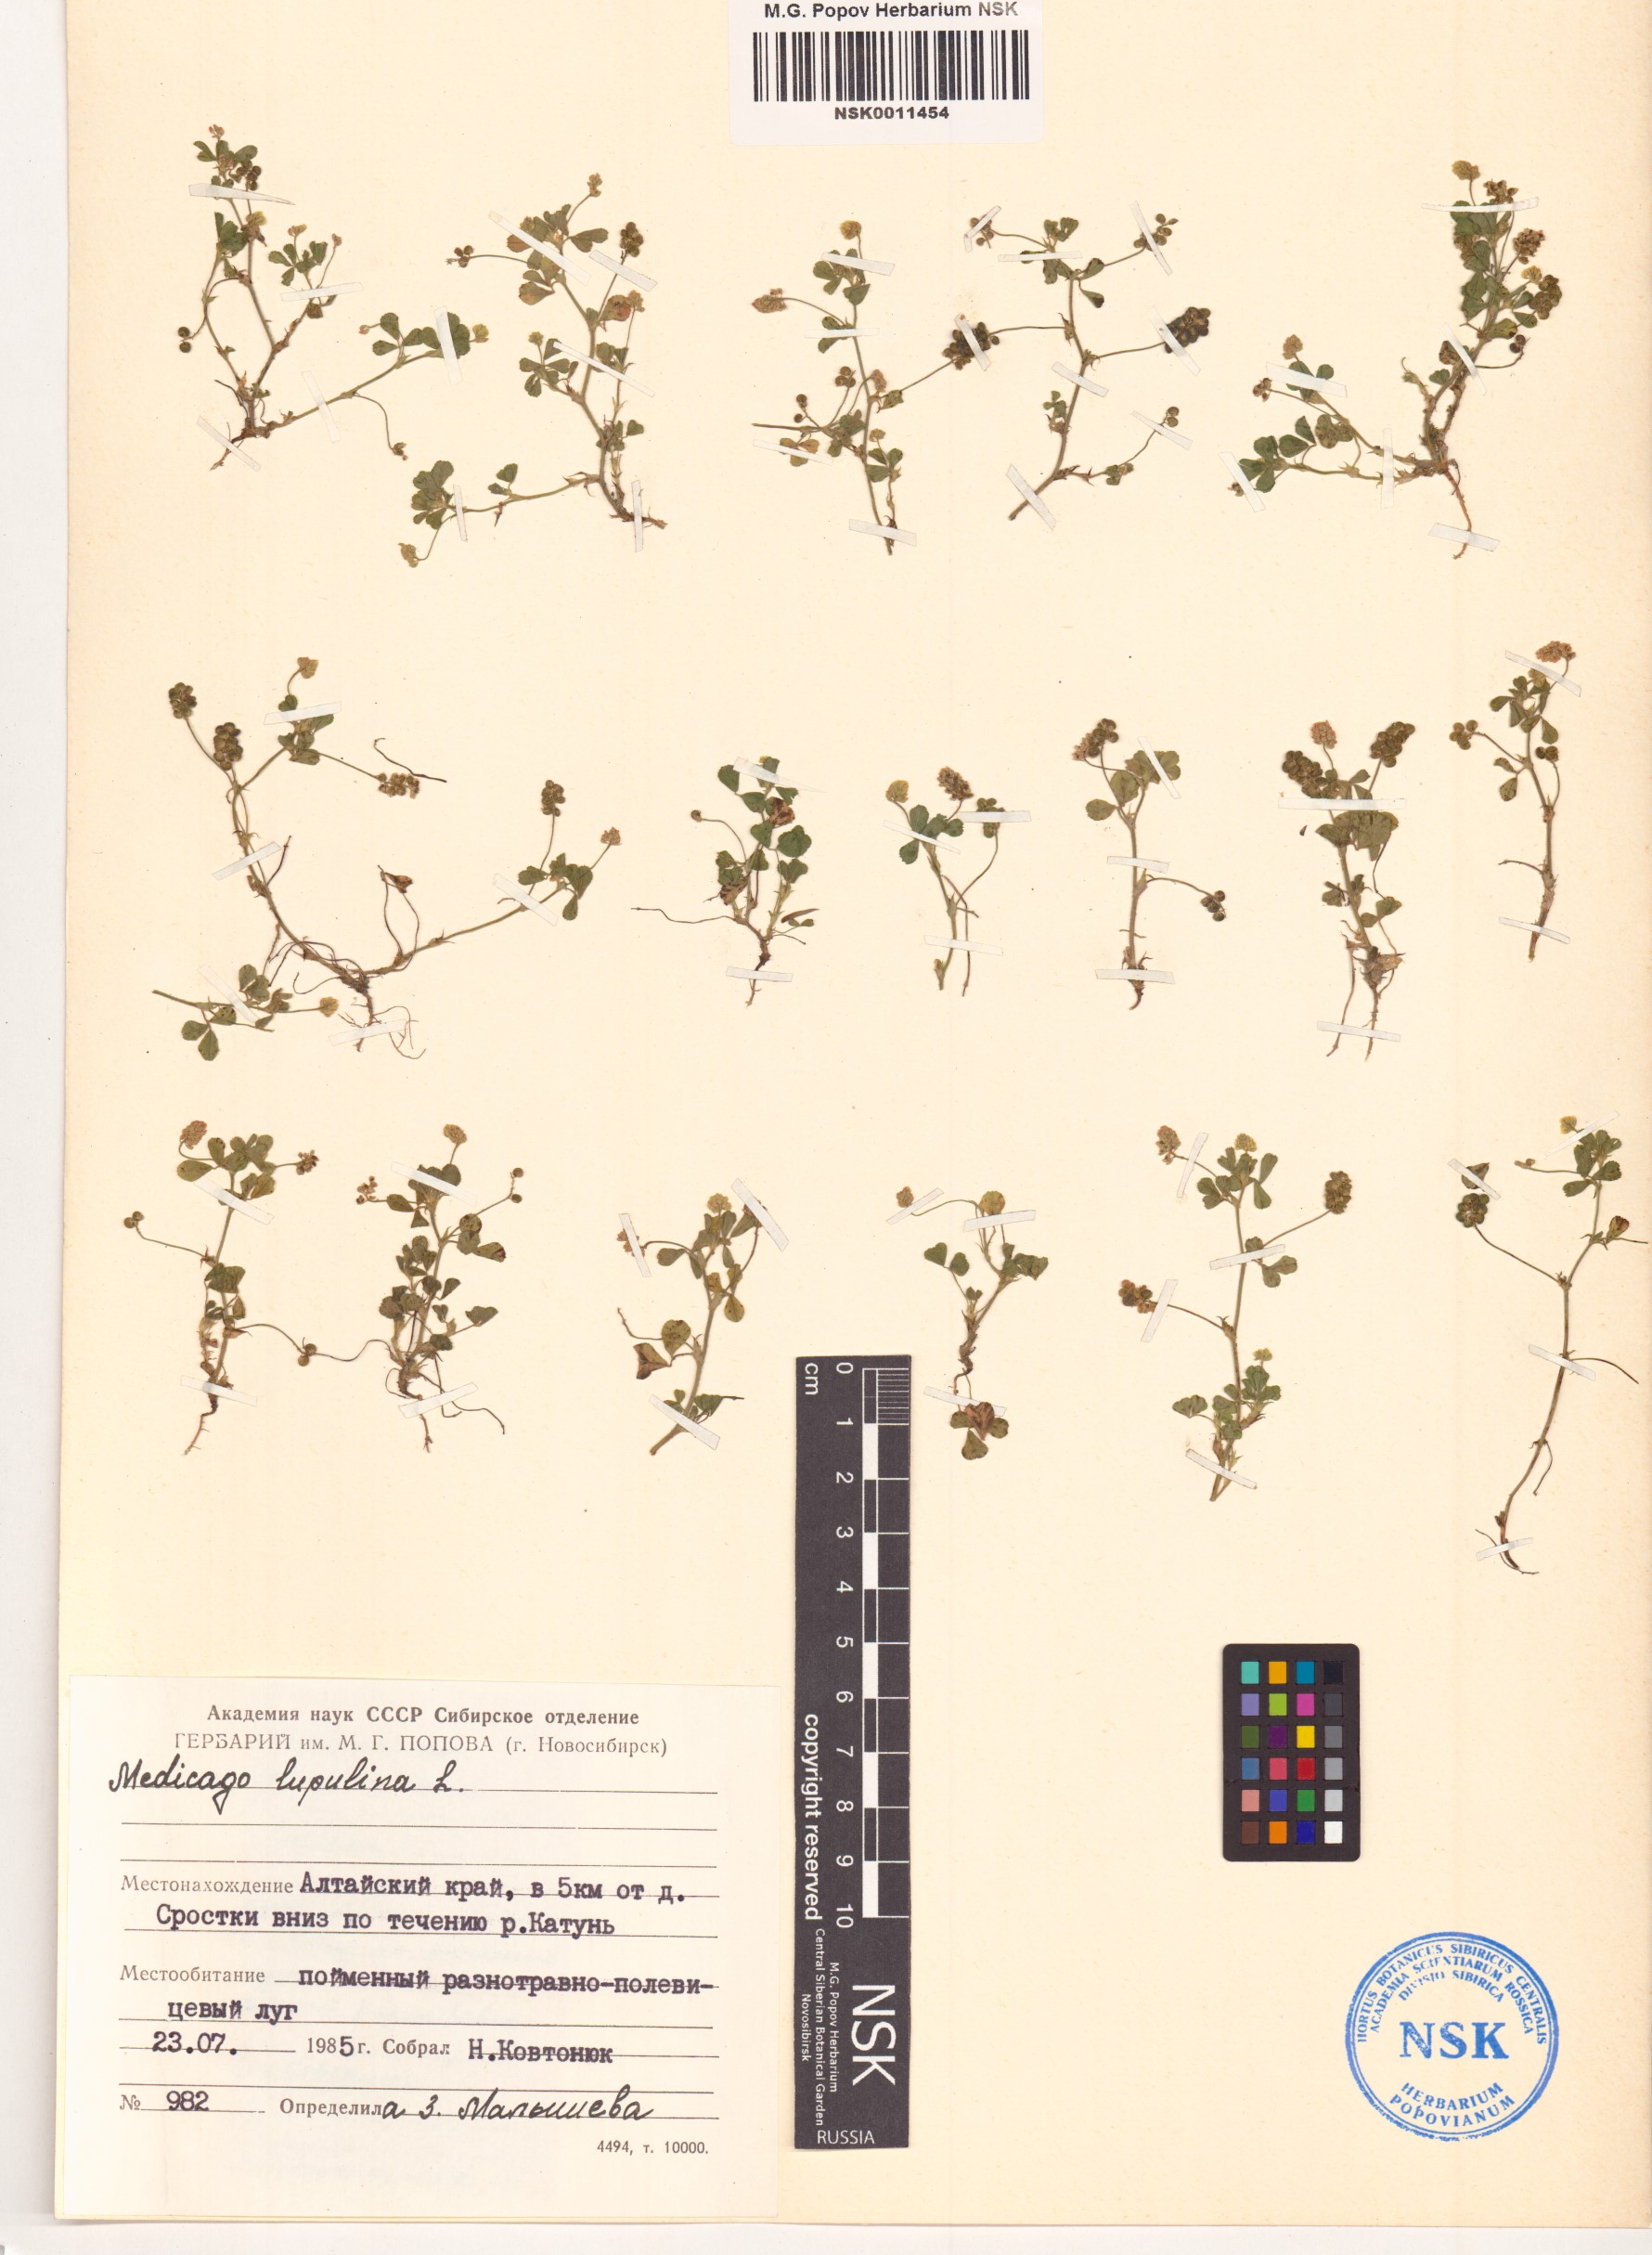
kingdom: Plantae
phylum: Tracheophyta
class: Magnoliopsida
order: Fabales
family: Fabaceae
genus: Medicago
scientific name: Medicago lupulina
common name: Black medick
